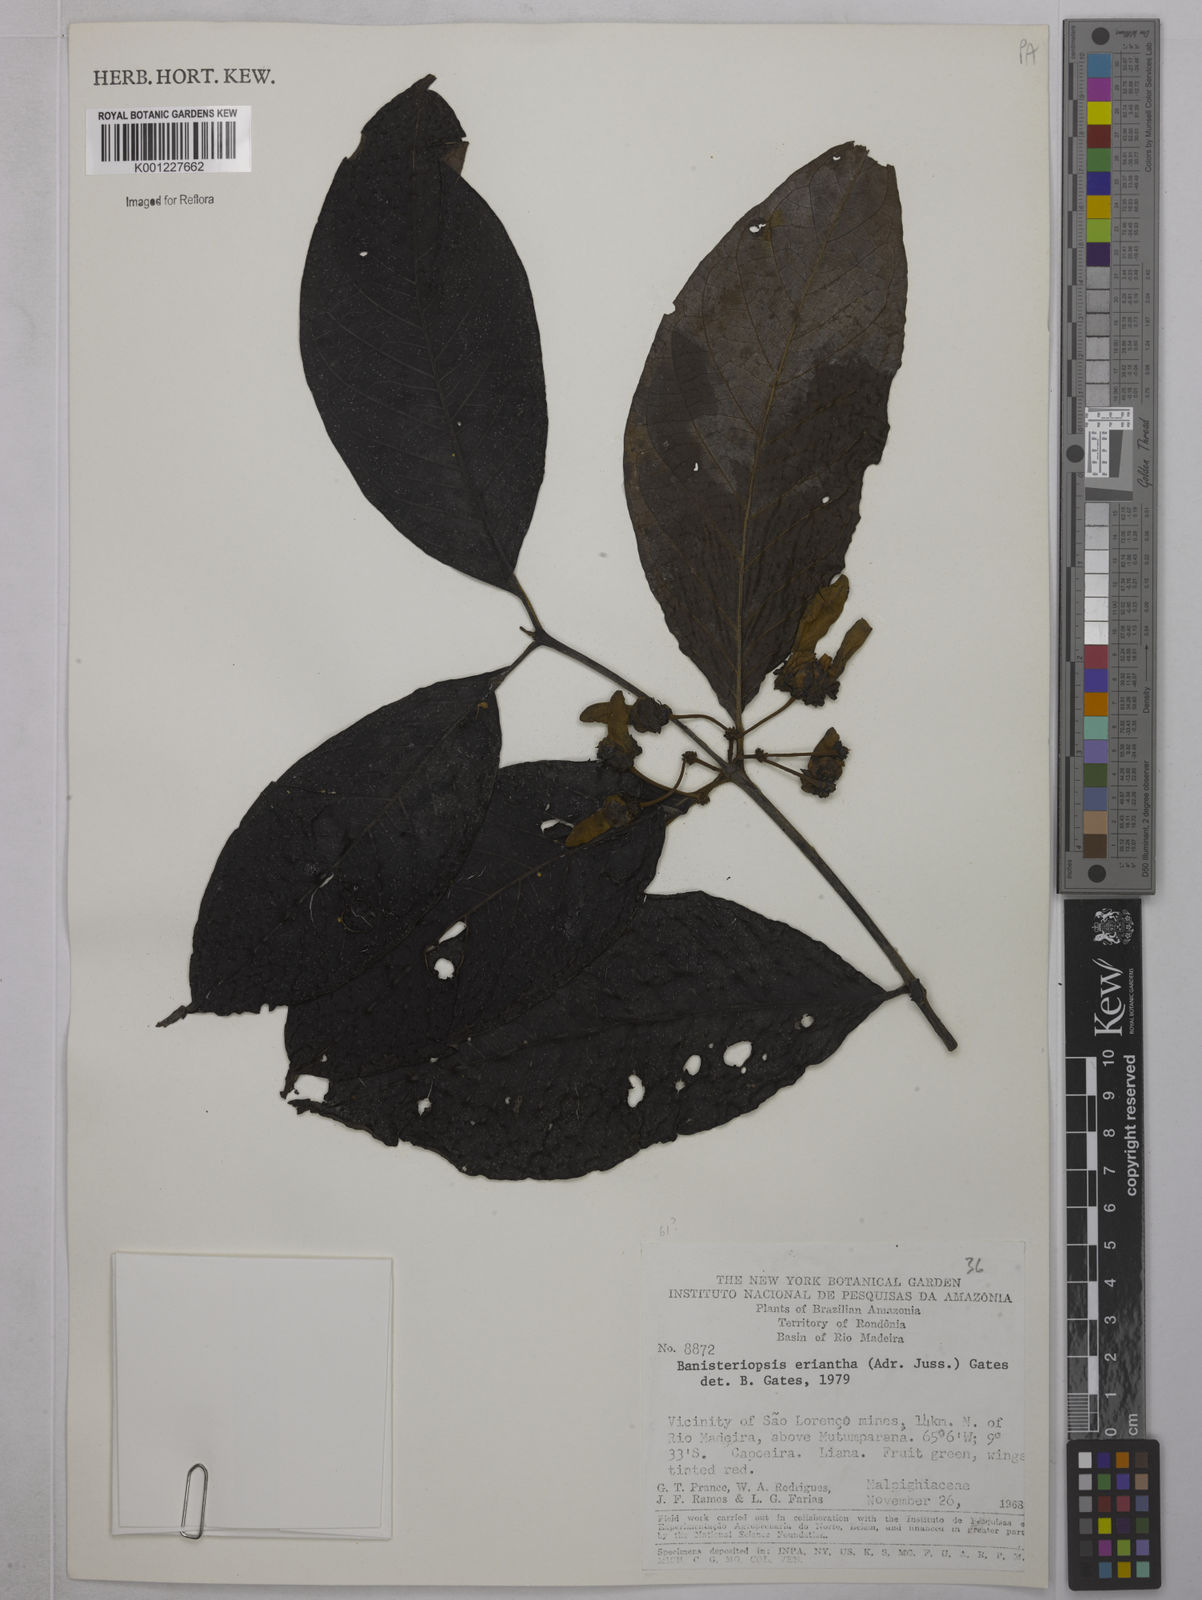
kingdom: Plantae
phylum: Tracheophyta
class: Magnoliopsida
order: Malpighiales
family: Malpighiaceae
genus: Diplopterys
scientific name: Diplopterys erianthera
